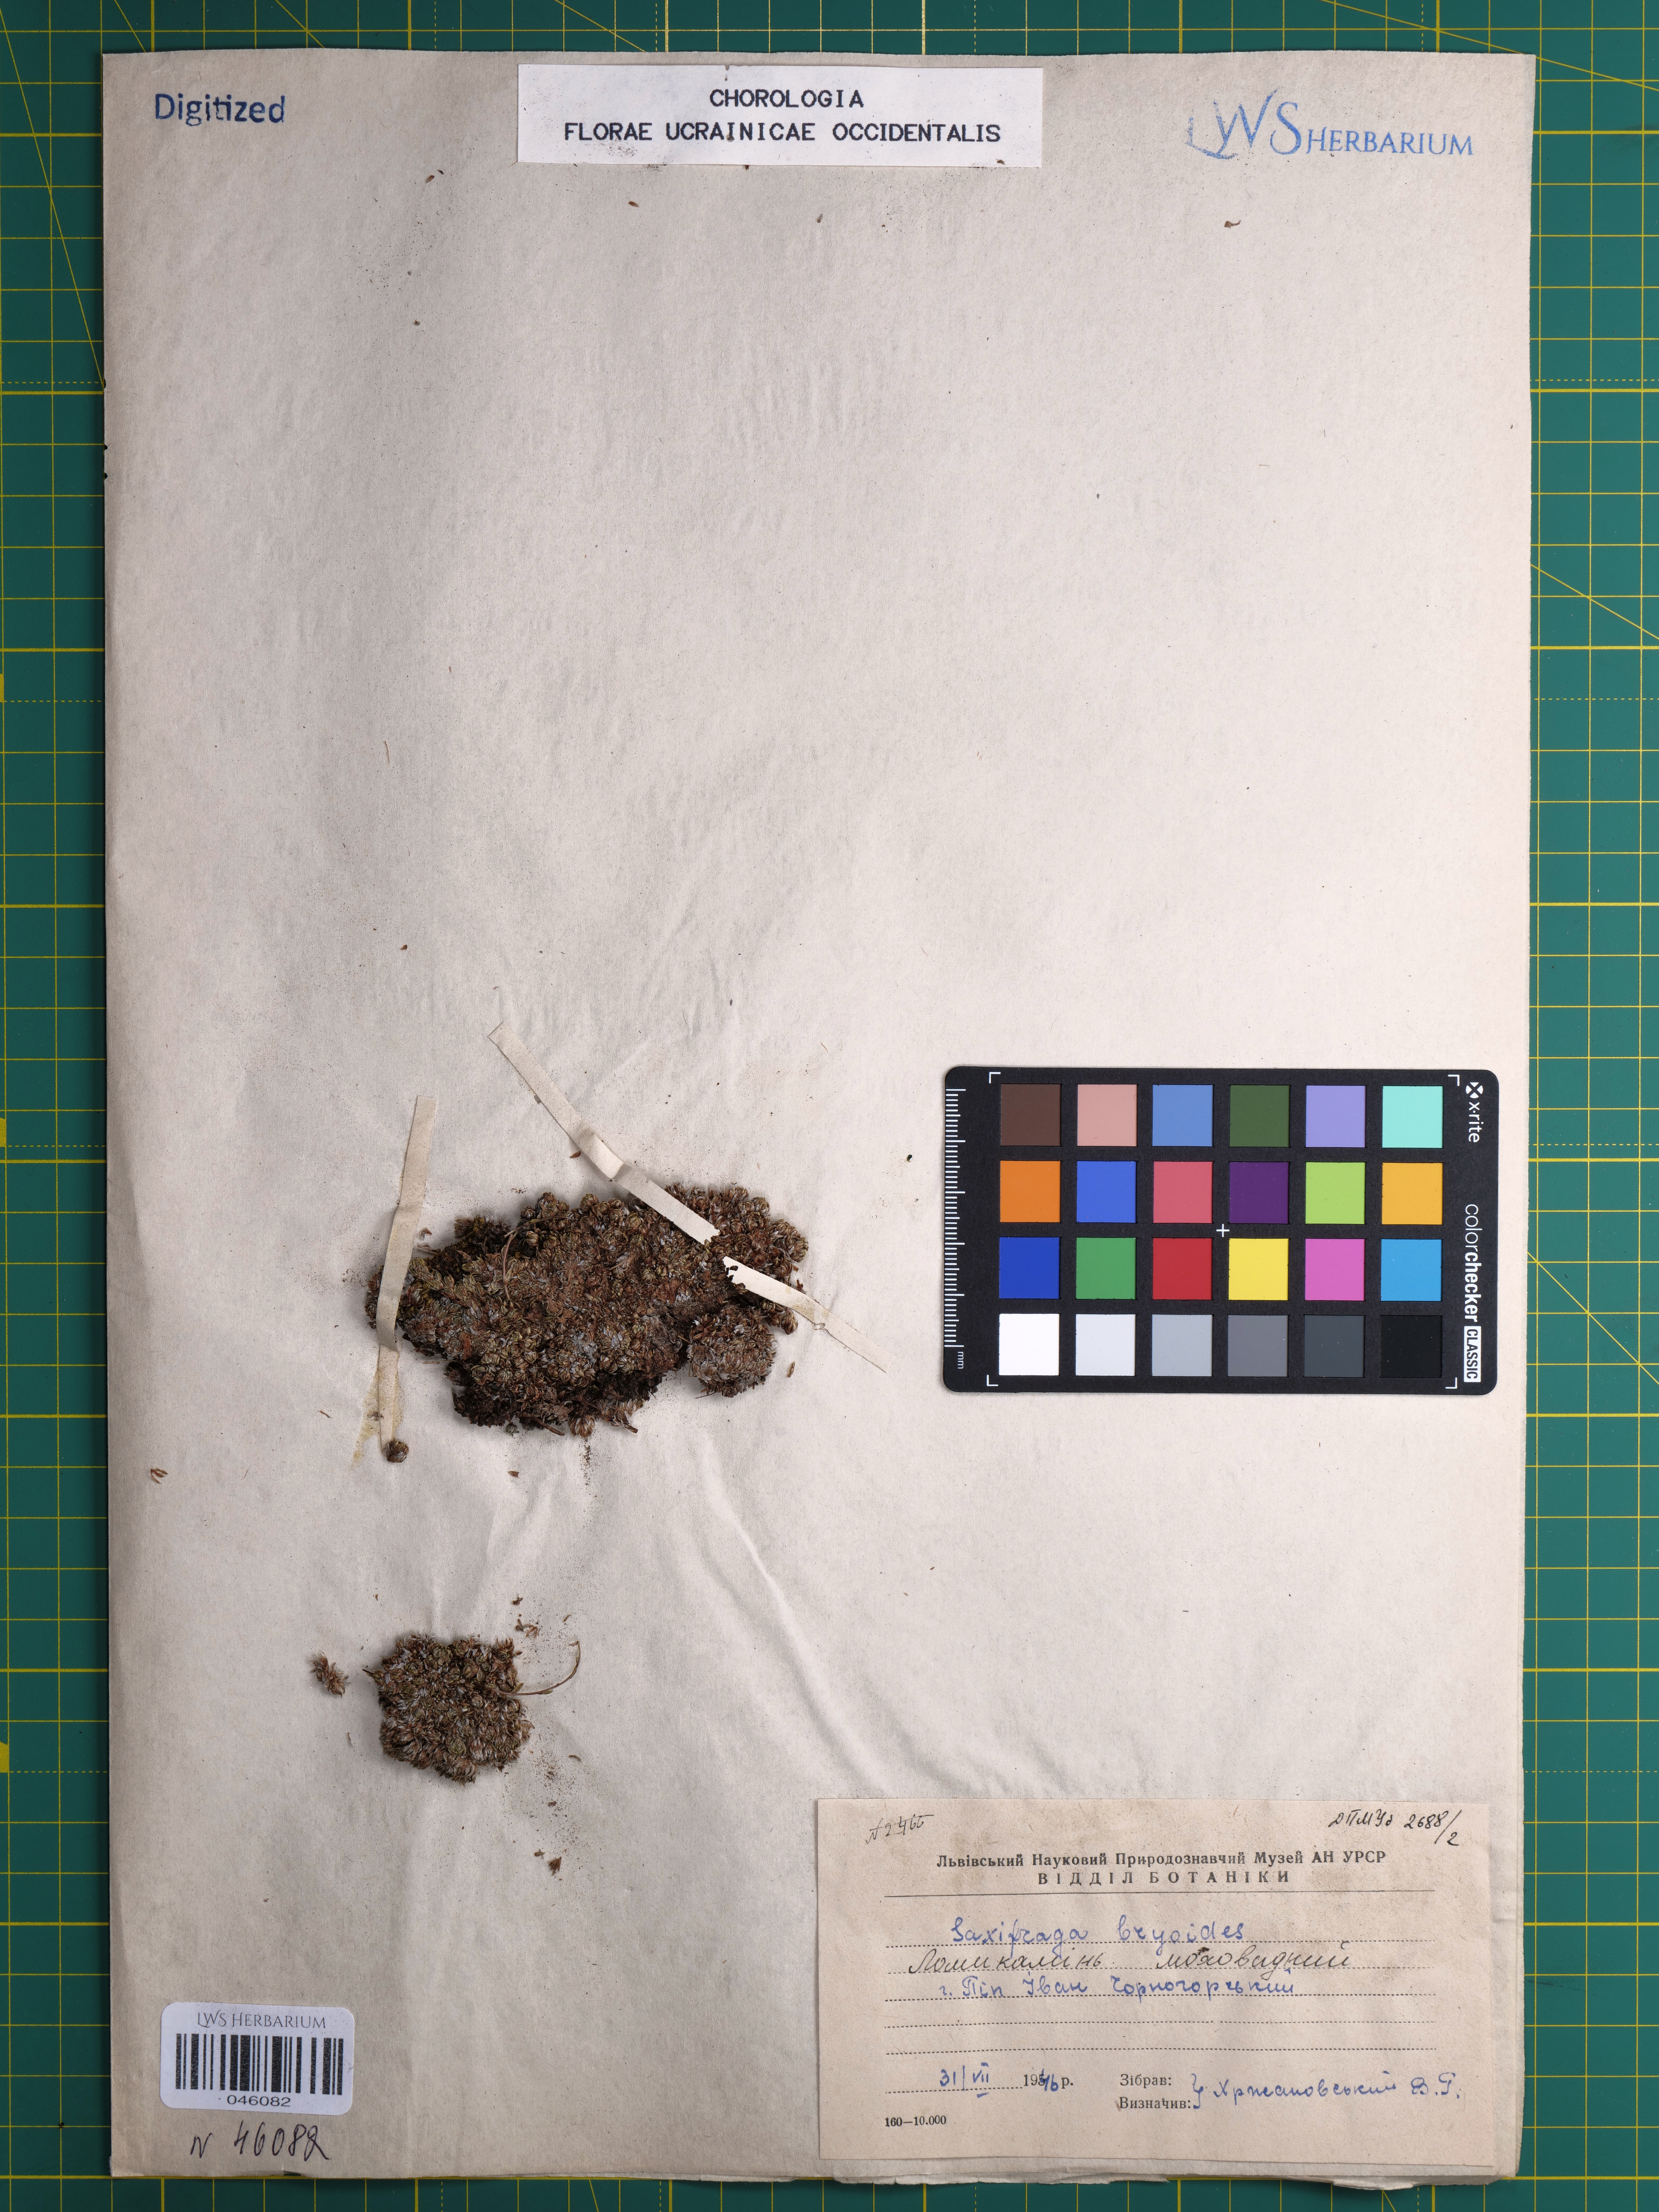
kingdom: Plantae
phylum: Tracheophyta
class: Magnoliopsida
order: Saxifragales
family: Saxifragaceae
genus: Saxifraga
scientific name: Saxifraga bryoides
